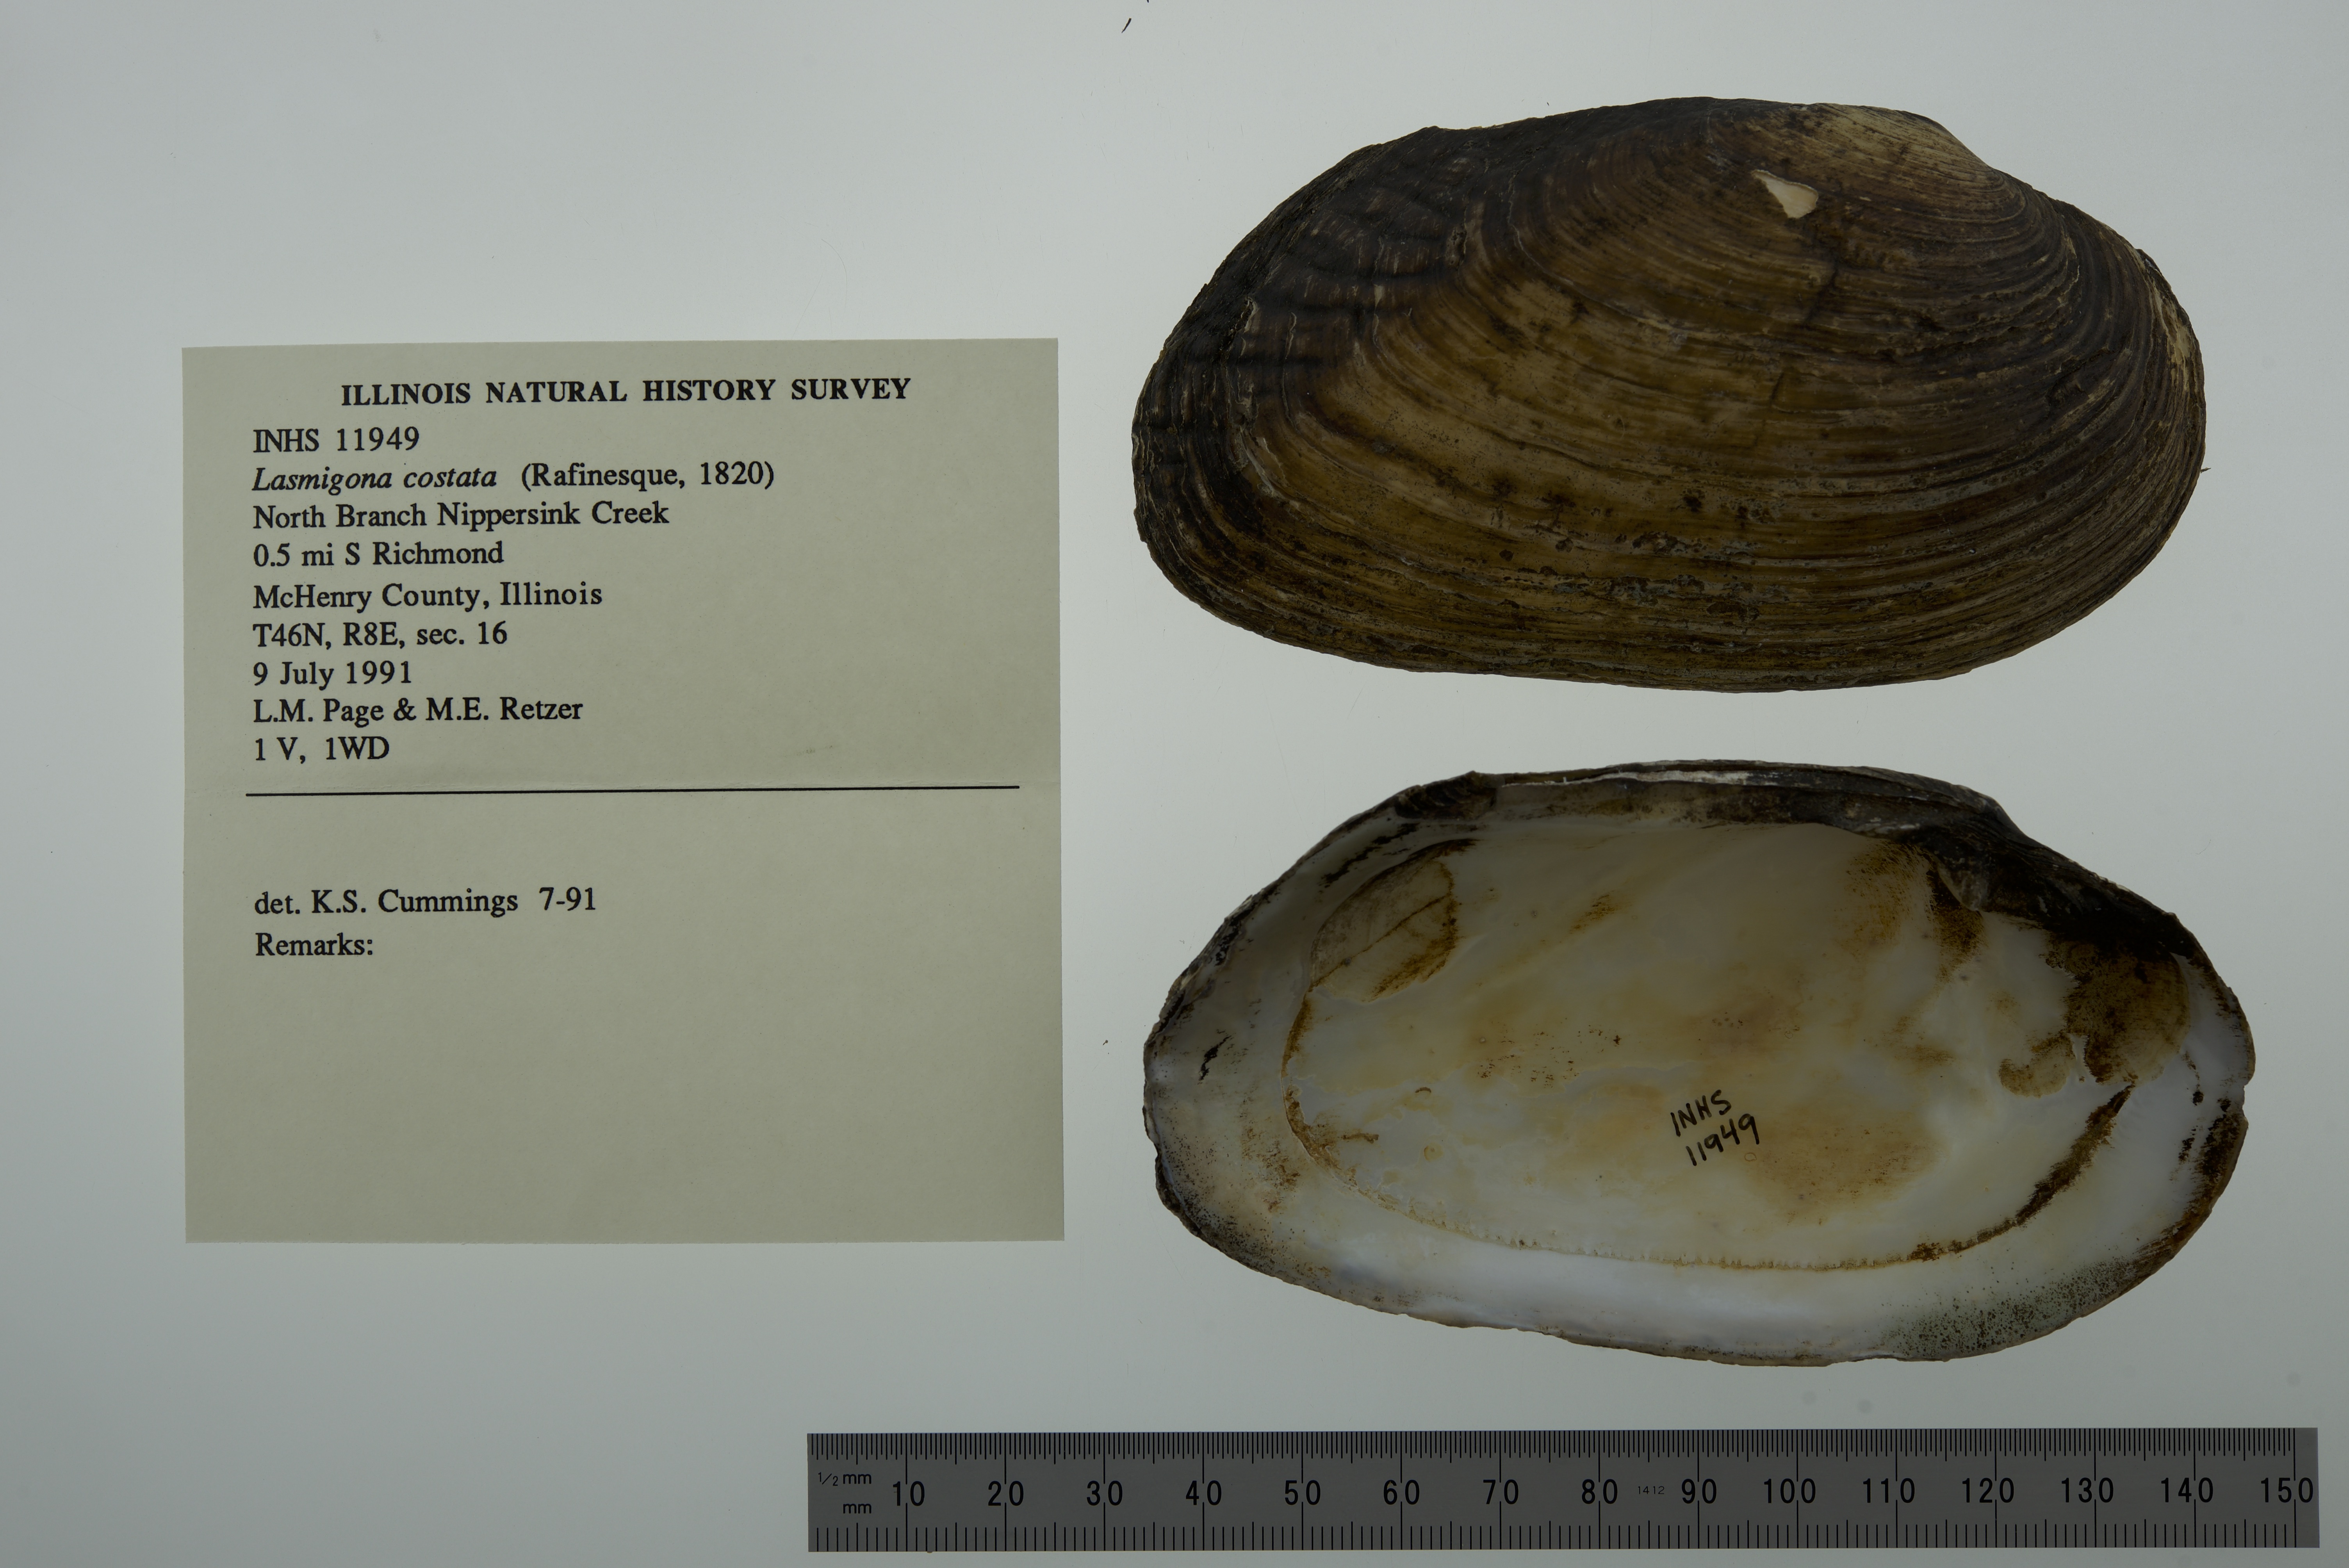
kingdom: Animalia
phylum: Mollusca
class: Bivalvia
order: Unionida
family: Unionidae
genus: Lasmigona
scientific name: Lasmigona costata
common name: Flutedshell
